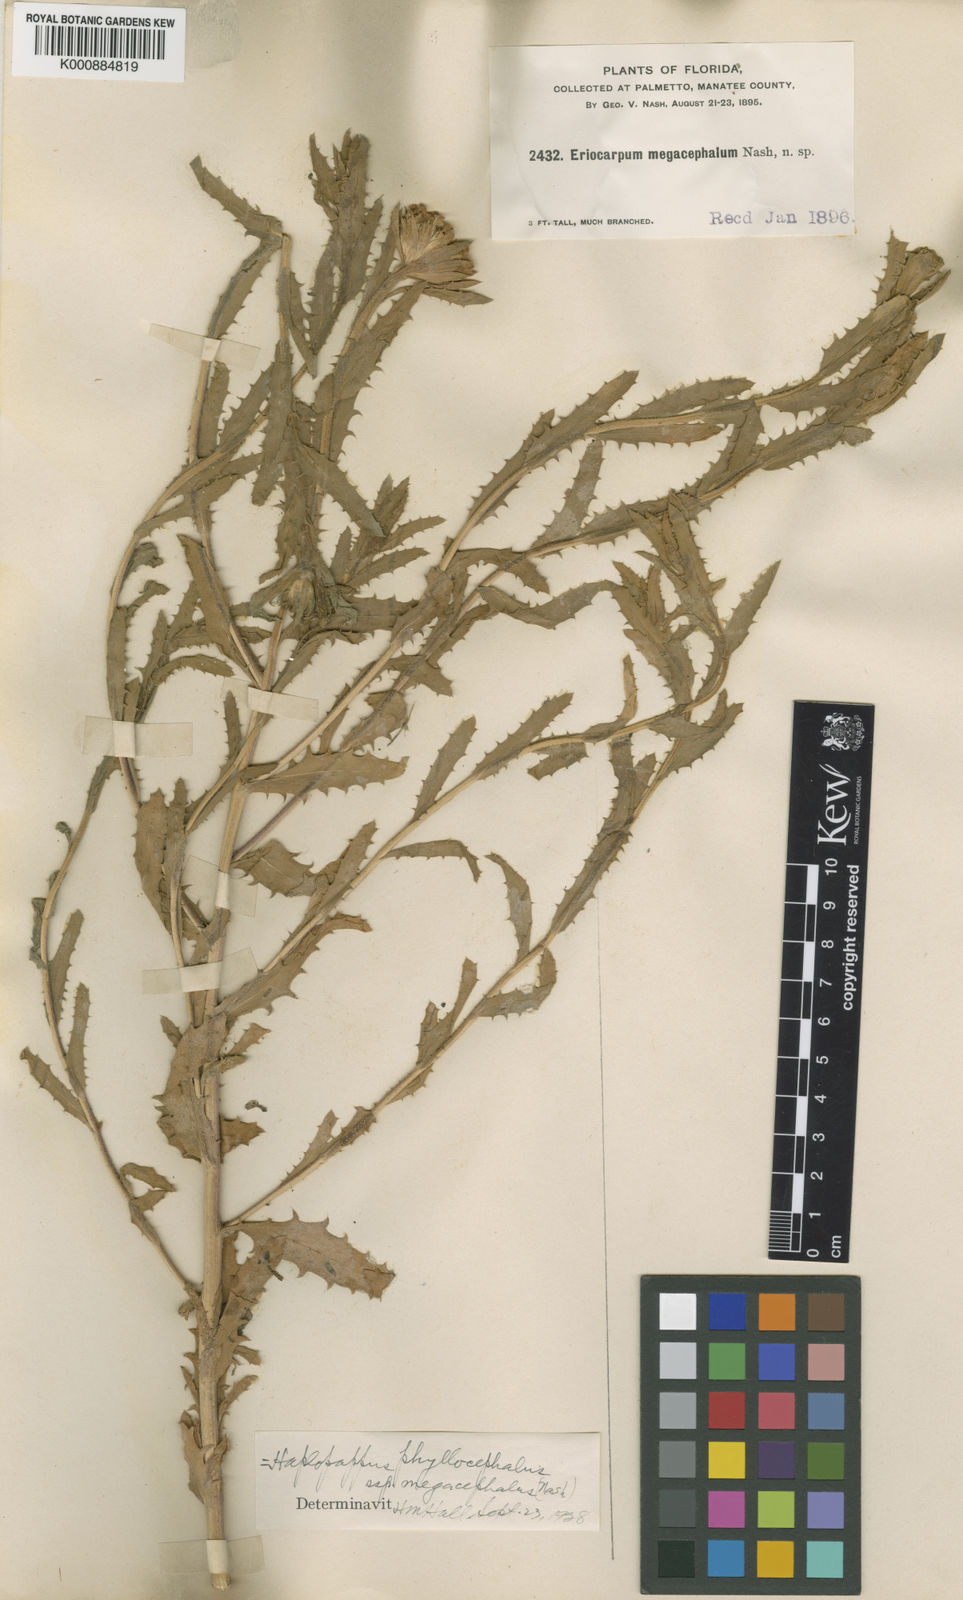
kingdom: Plantae
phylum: Tracheophyta
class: Magnoliopsida
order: Asterales
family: Asteraceae
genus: Rayjacksonia
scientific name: Rayjacksonia phyllocephala
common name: Gulf coast camphor daisy
